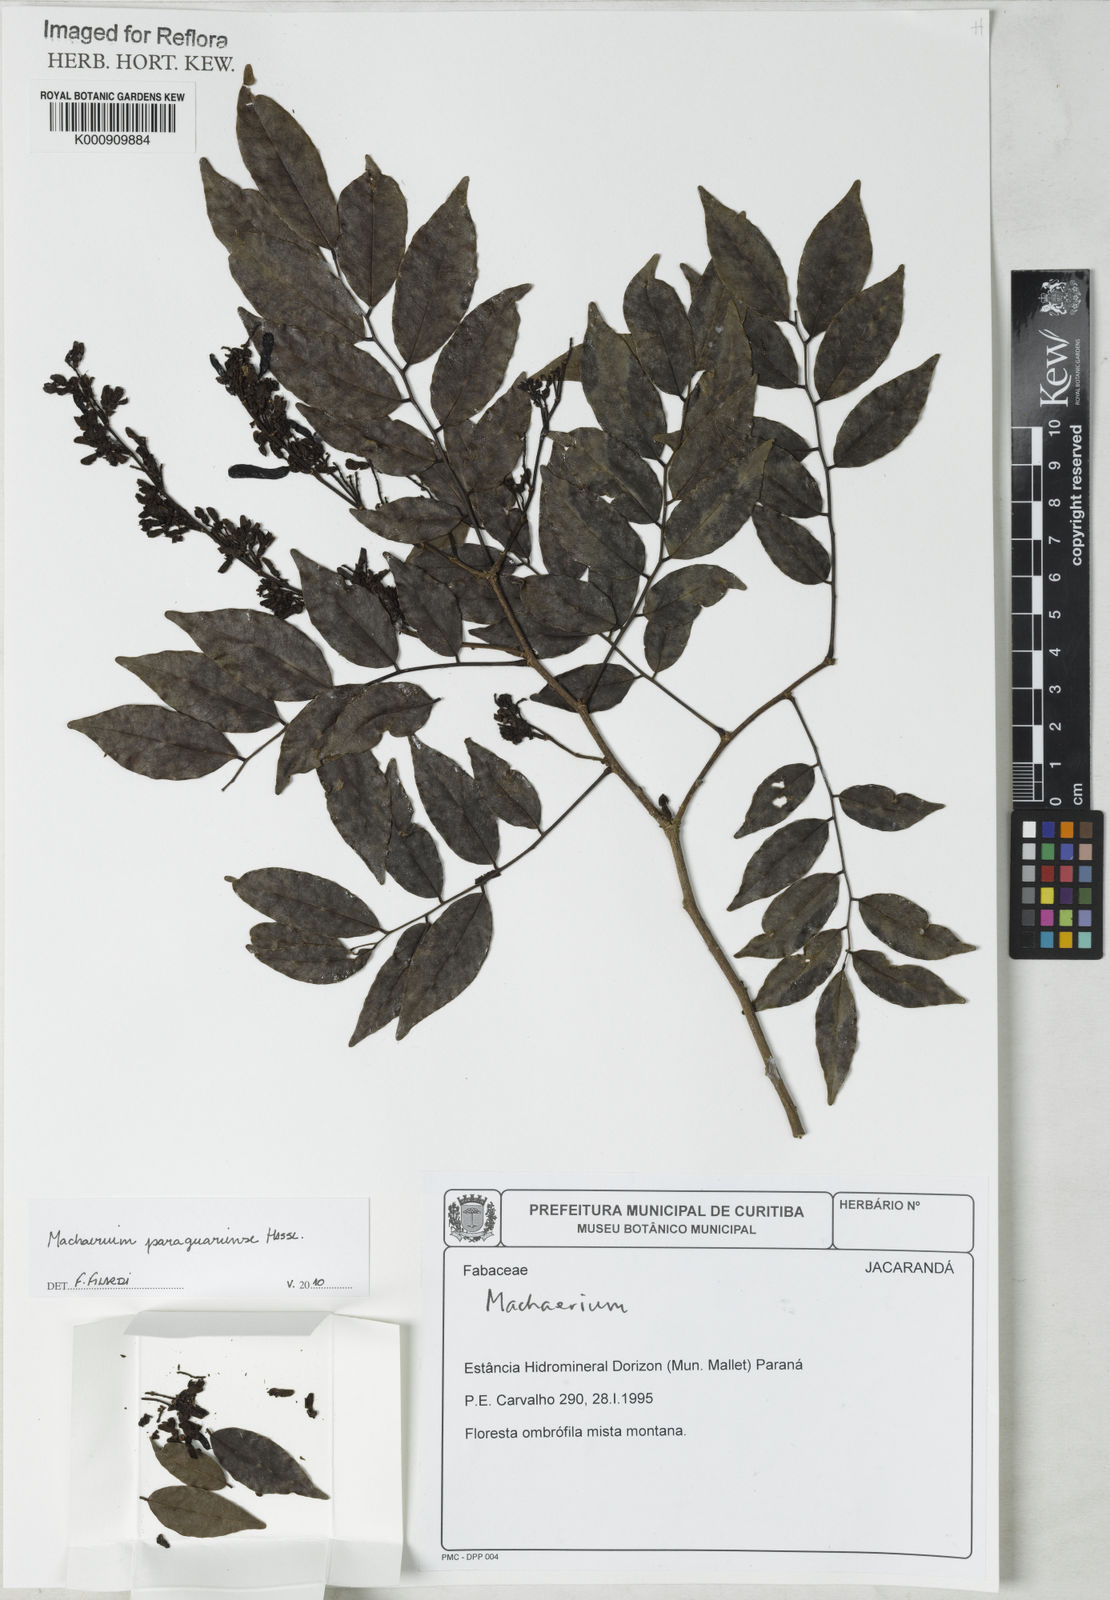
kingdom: Plantae
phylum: Tracheophyta
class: Magnoliopsida
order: Fabales
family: Fabaceae
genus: Machaerium
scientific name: Machaerium oblongifolium
